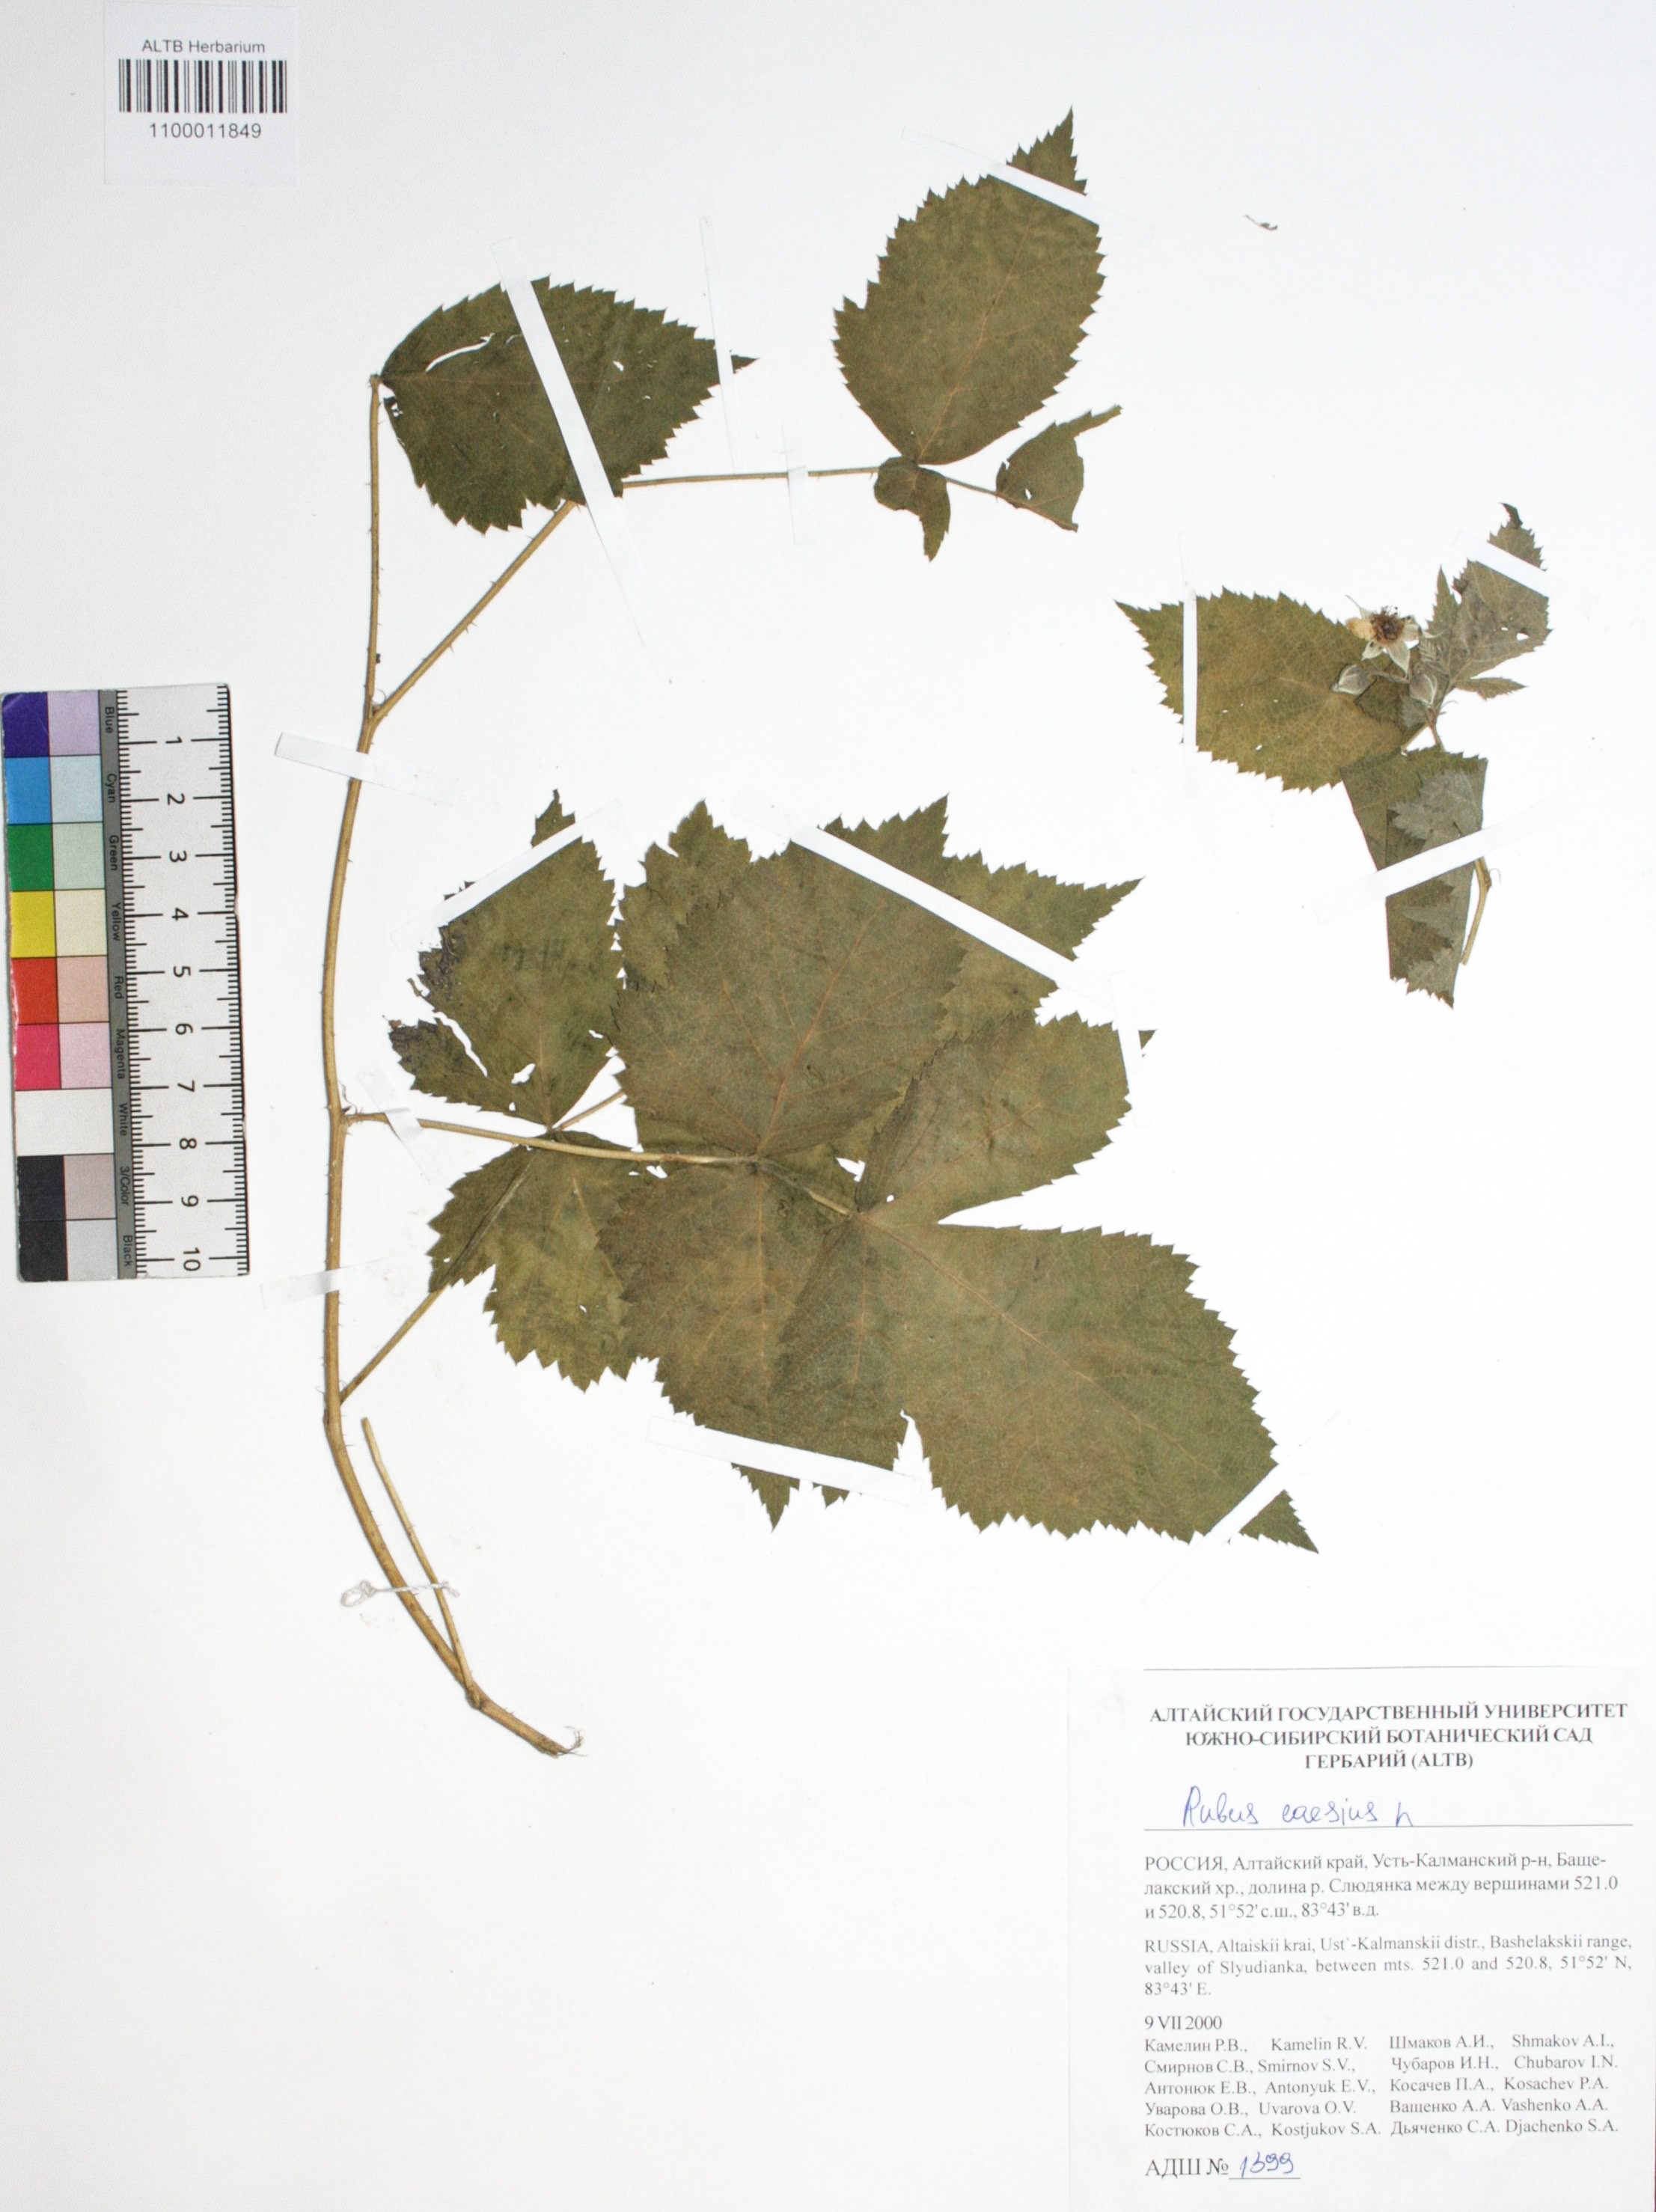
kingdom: Plantae
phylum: Tracheophyta
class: Magnoliopsida
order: Rosales
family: Rosaceae
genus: Rubus
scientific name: Rubus caesius
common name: Dewberry
